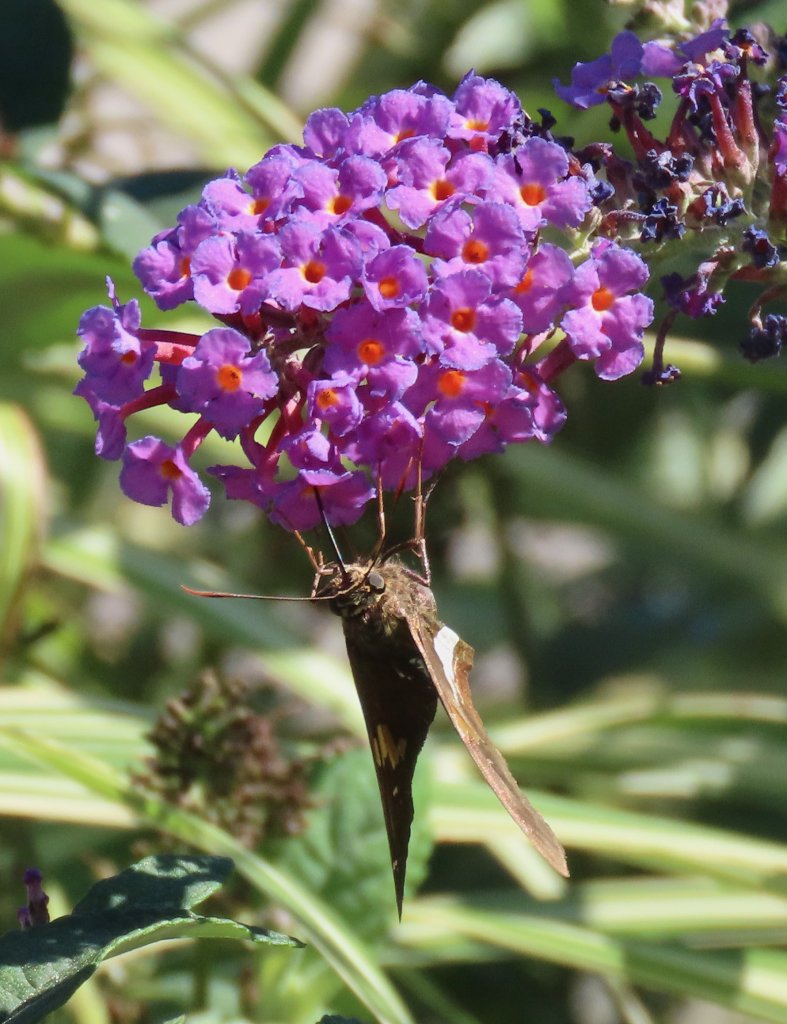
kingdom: Animalia
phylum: Arthropoda
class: Insecta
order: Lepidoptera
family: Hesperiidae
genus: Epargyreus
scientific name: Epargyreus clarus
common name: Silver-spotted Skipper
